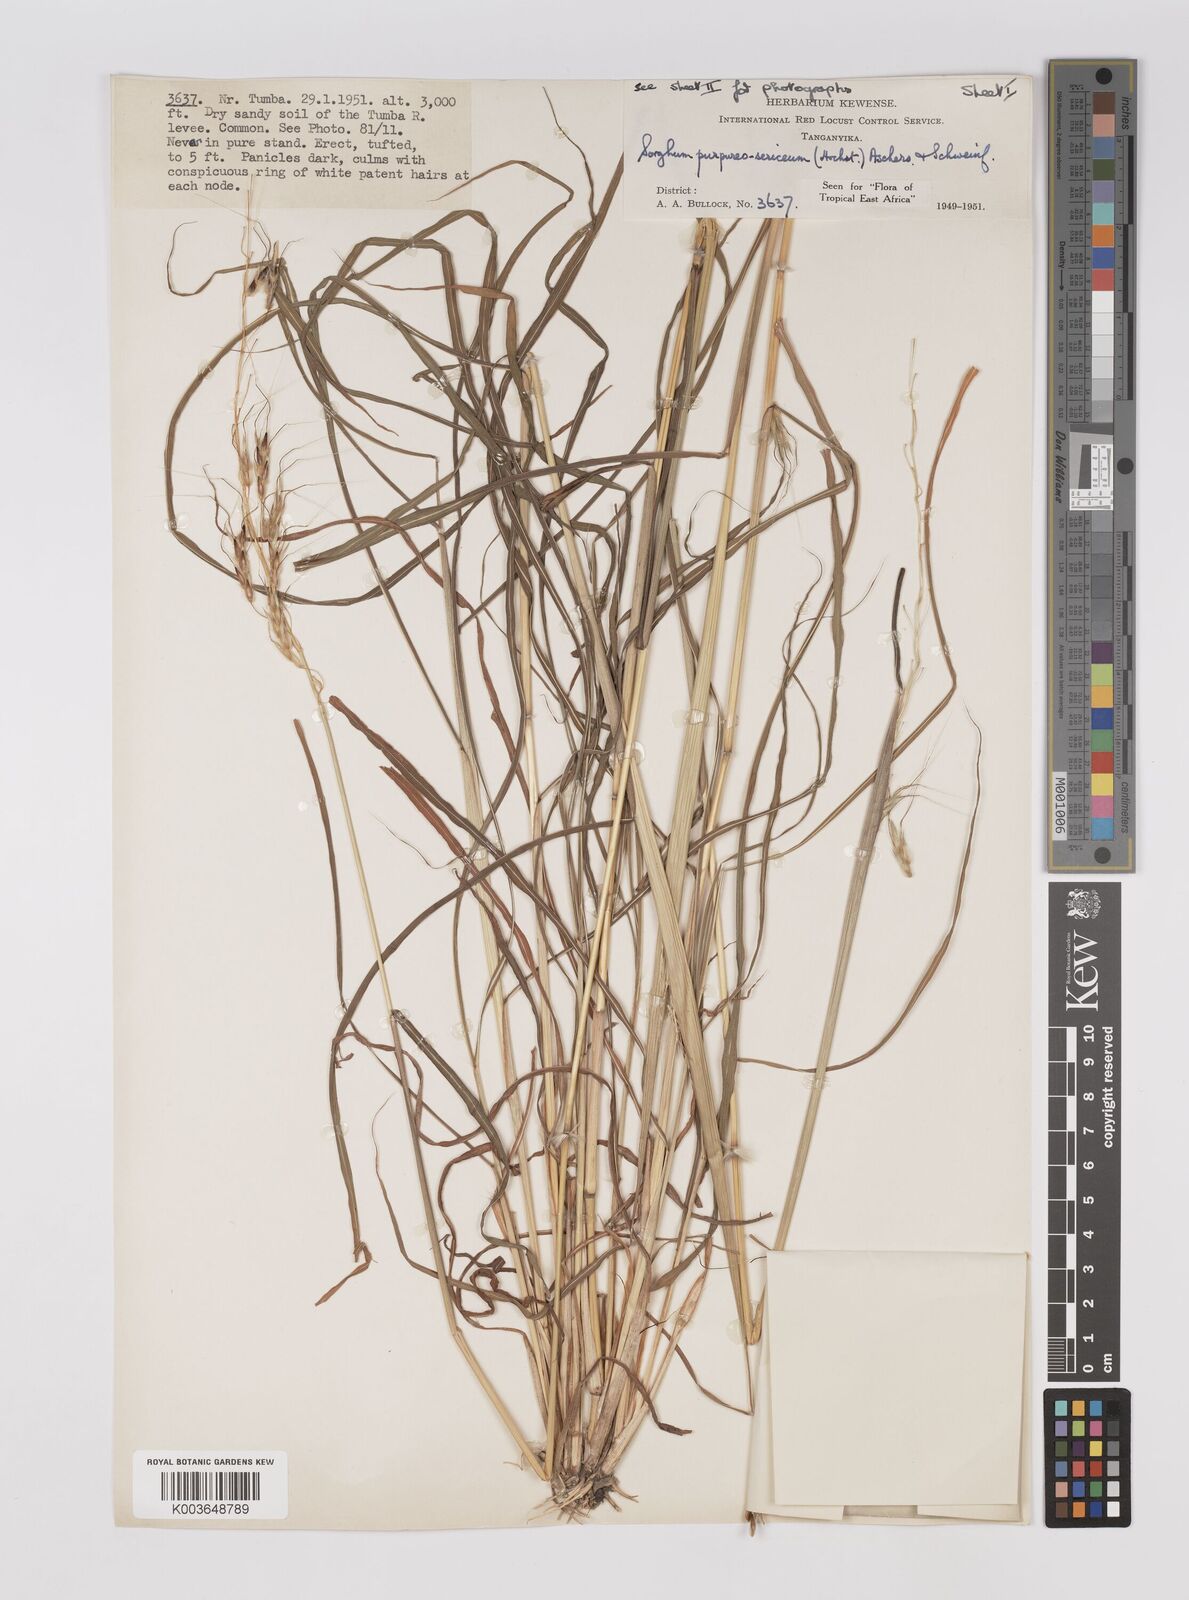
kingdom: Plantae
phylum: Tracheophyta
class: Liliopsida
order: Poales
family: Poaceae
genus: Sarga
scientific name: Sarga purpureosericea
